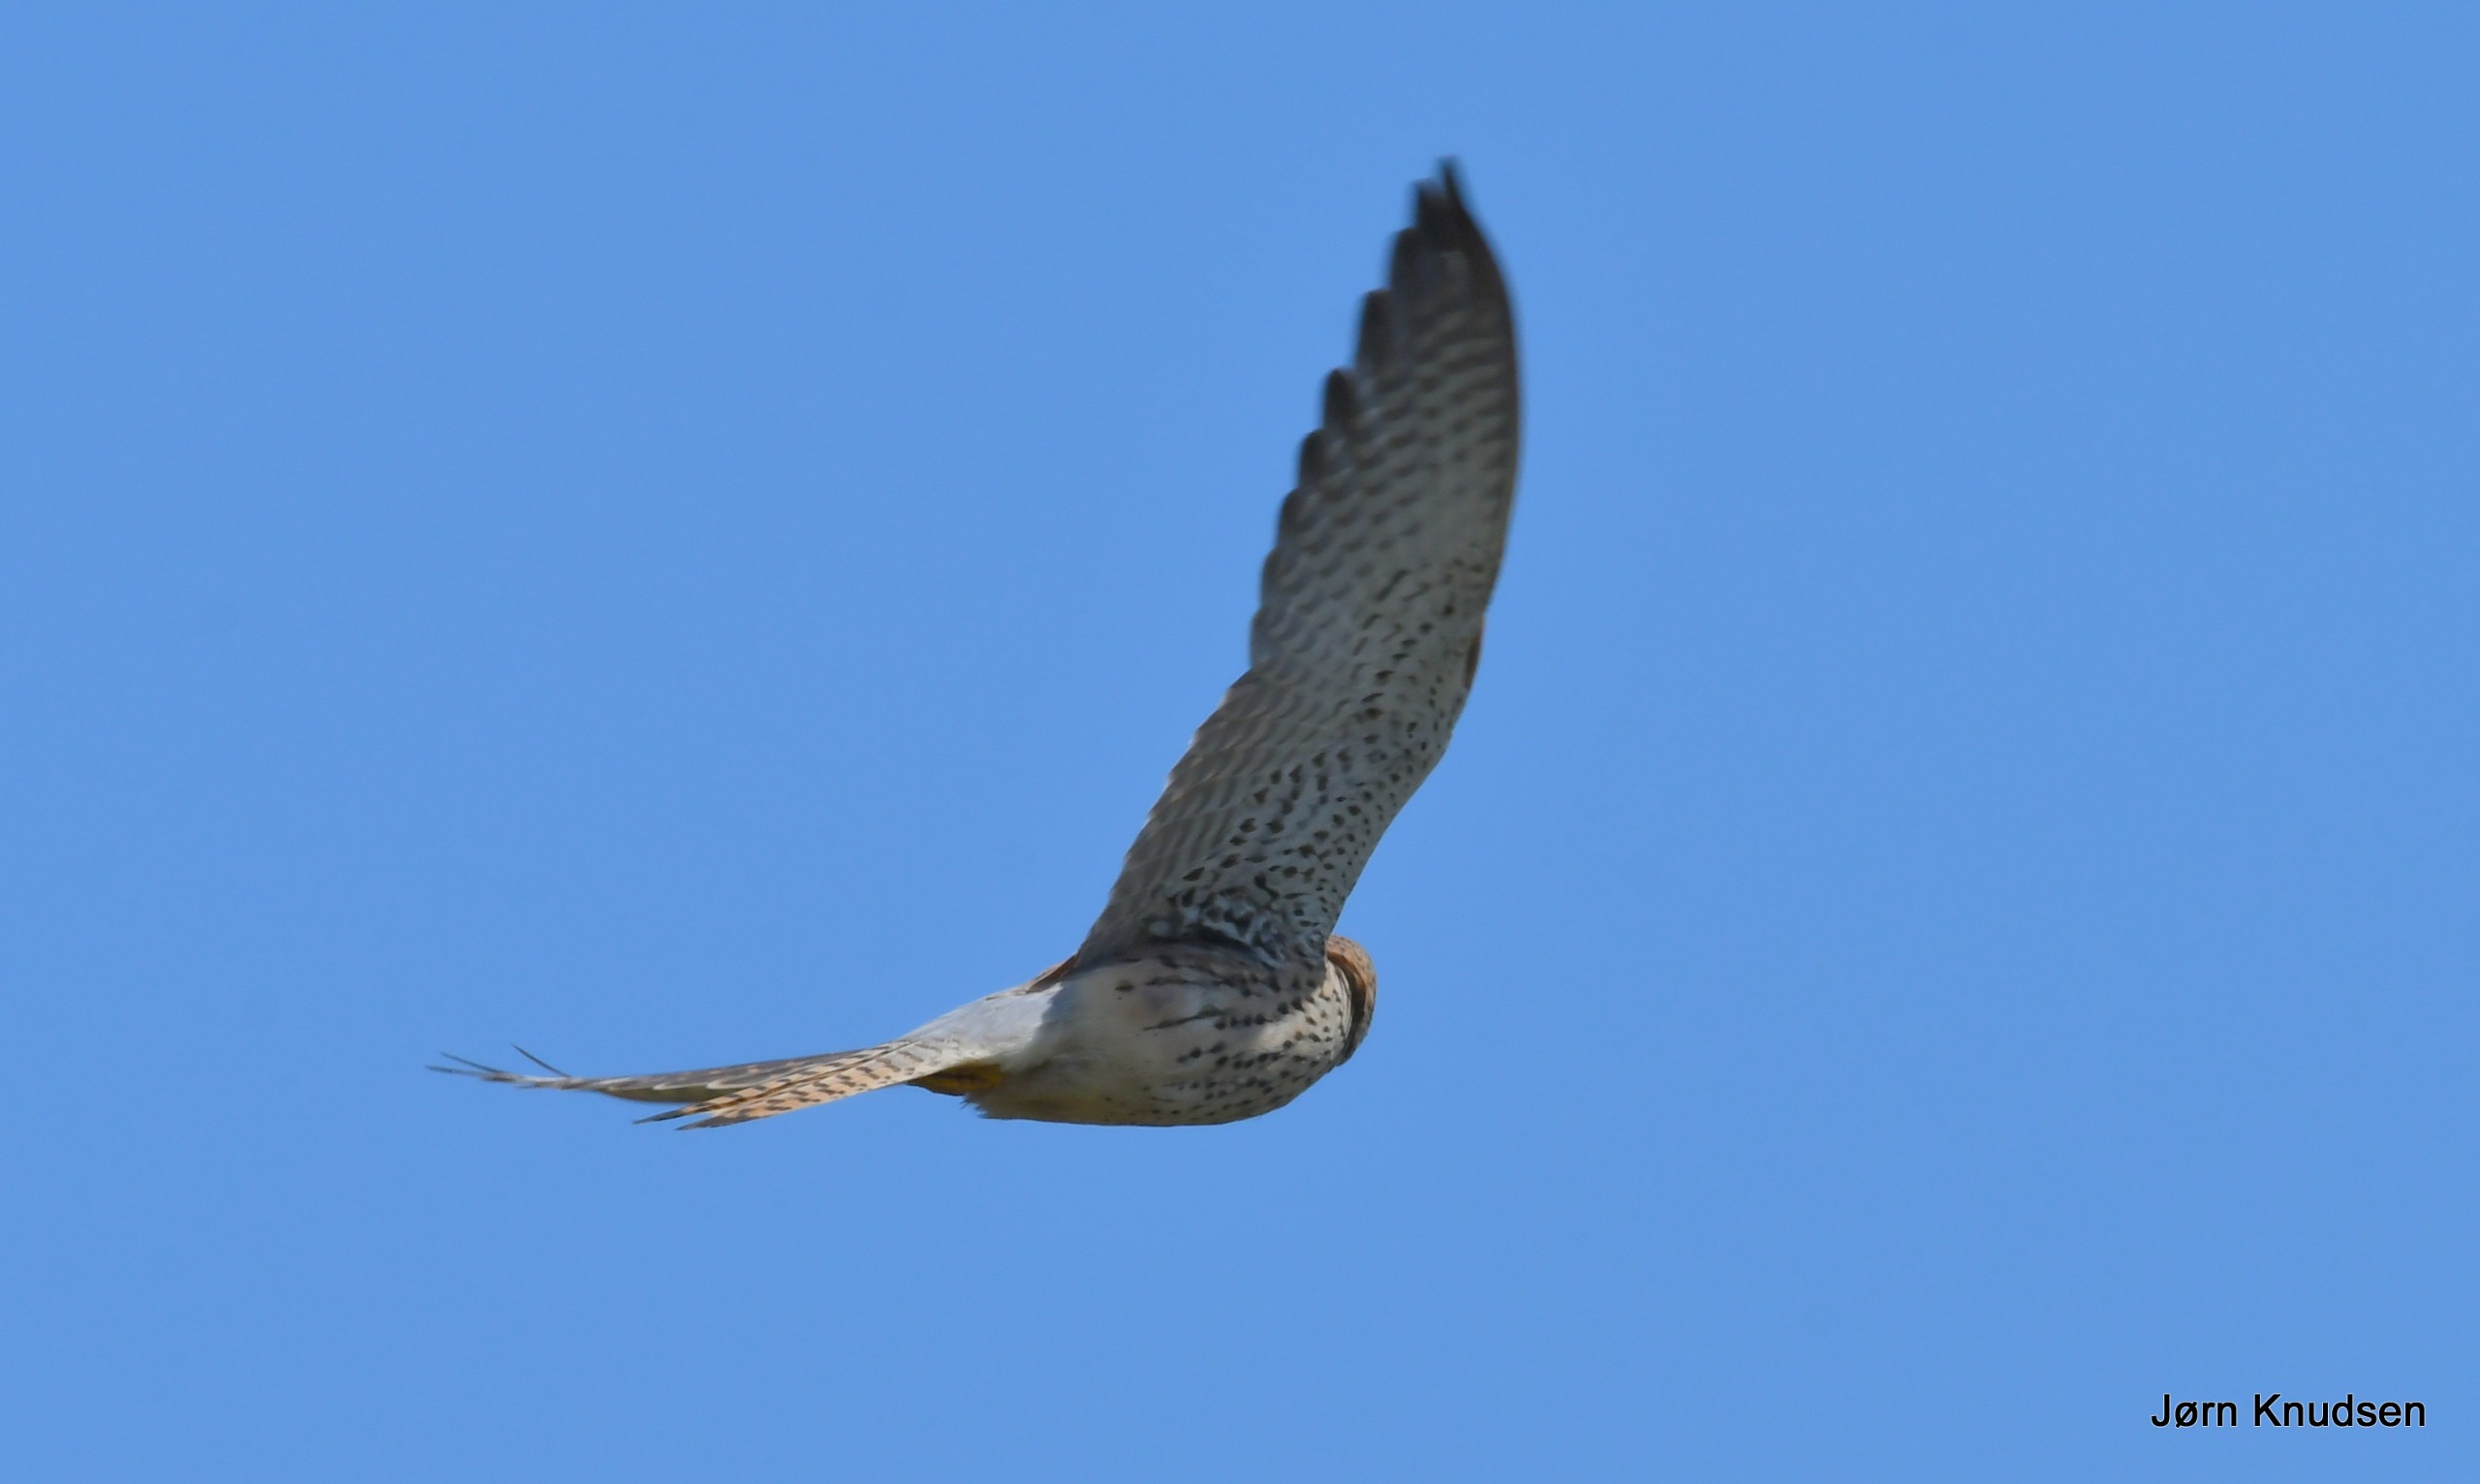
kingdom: Animalia
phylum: Chordata
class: Aves
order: Falconiformes
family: Falconidae
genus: Falco
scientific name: Falco tinnunculus
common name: Tårnfalk
